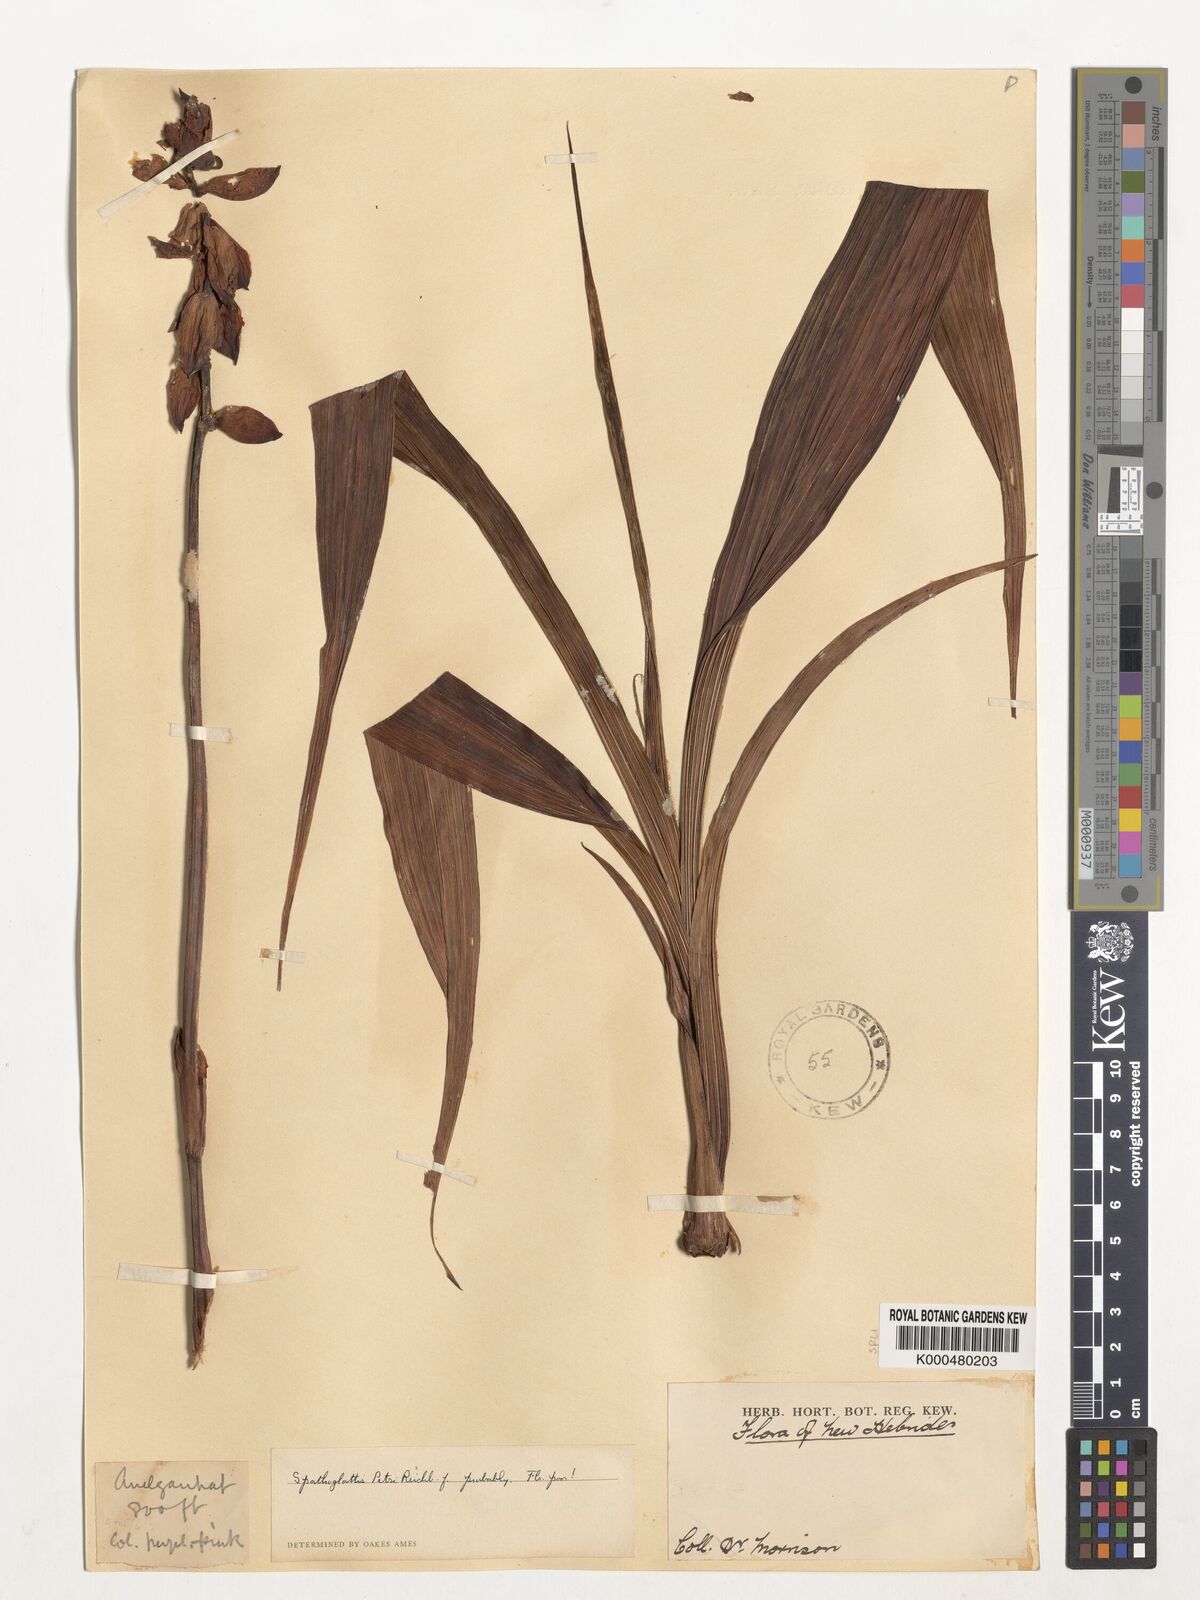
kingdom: Plantae
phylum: Tracheophyta
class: Liliopsida
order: Asparagales
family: Orchidaceae
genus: Spathoglottis
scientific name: Spathoglottis petri
